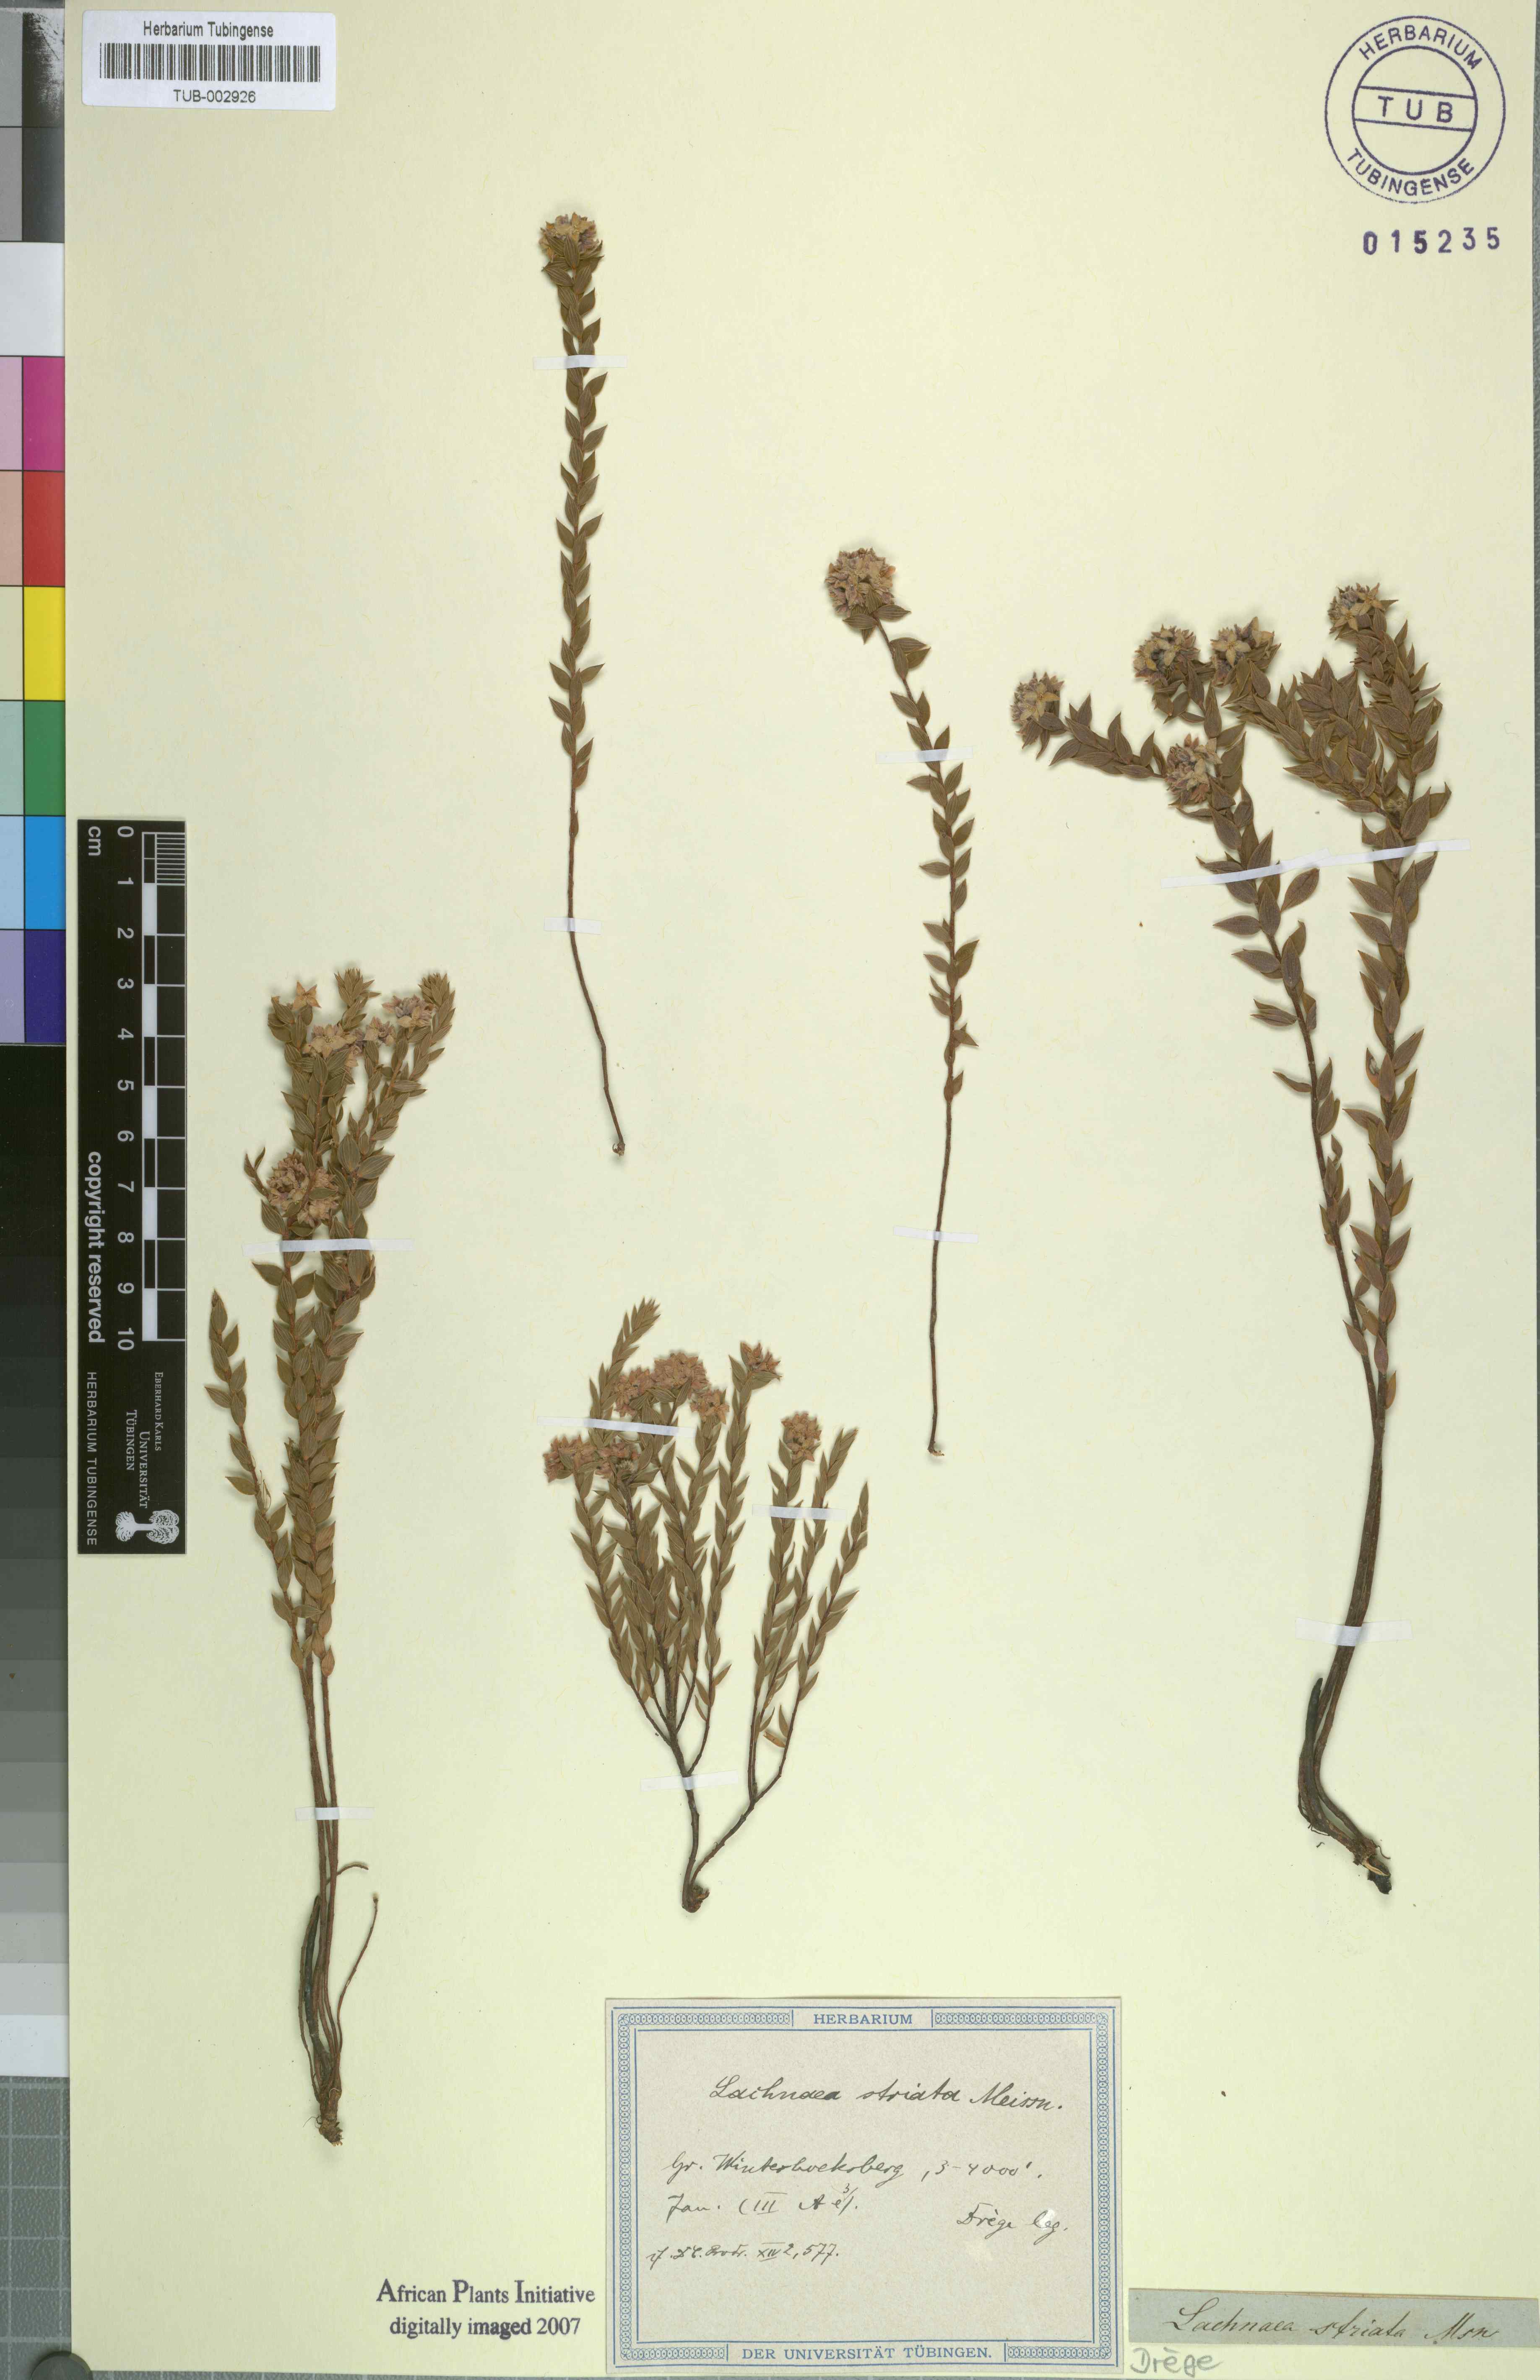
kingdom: Plantae
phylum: Tracheophyta
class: Magnoliopsida
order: Malvales
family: Thymelaeaceae
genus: Lachnaea
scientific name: Lachnaea striata
